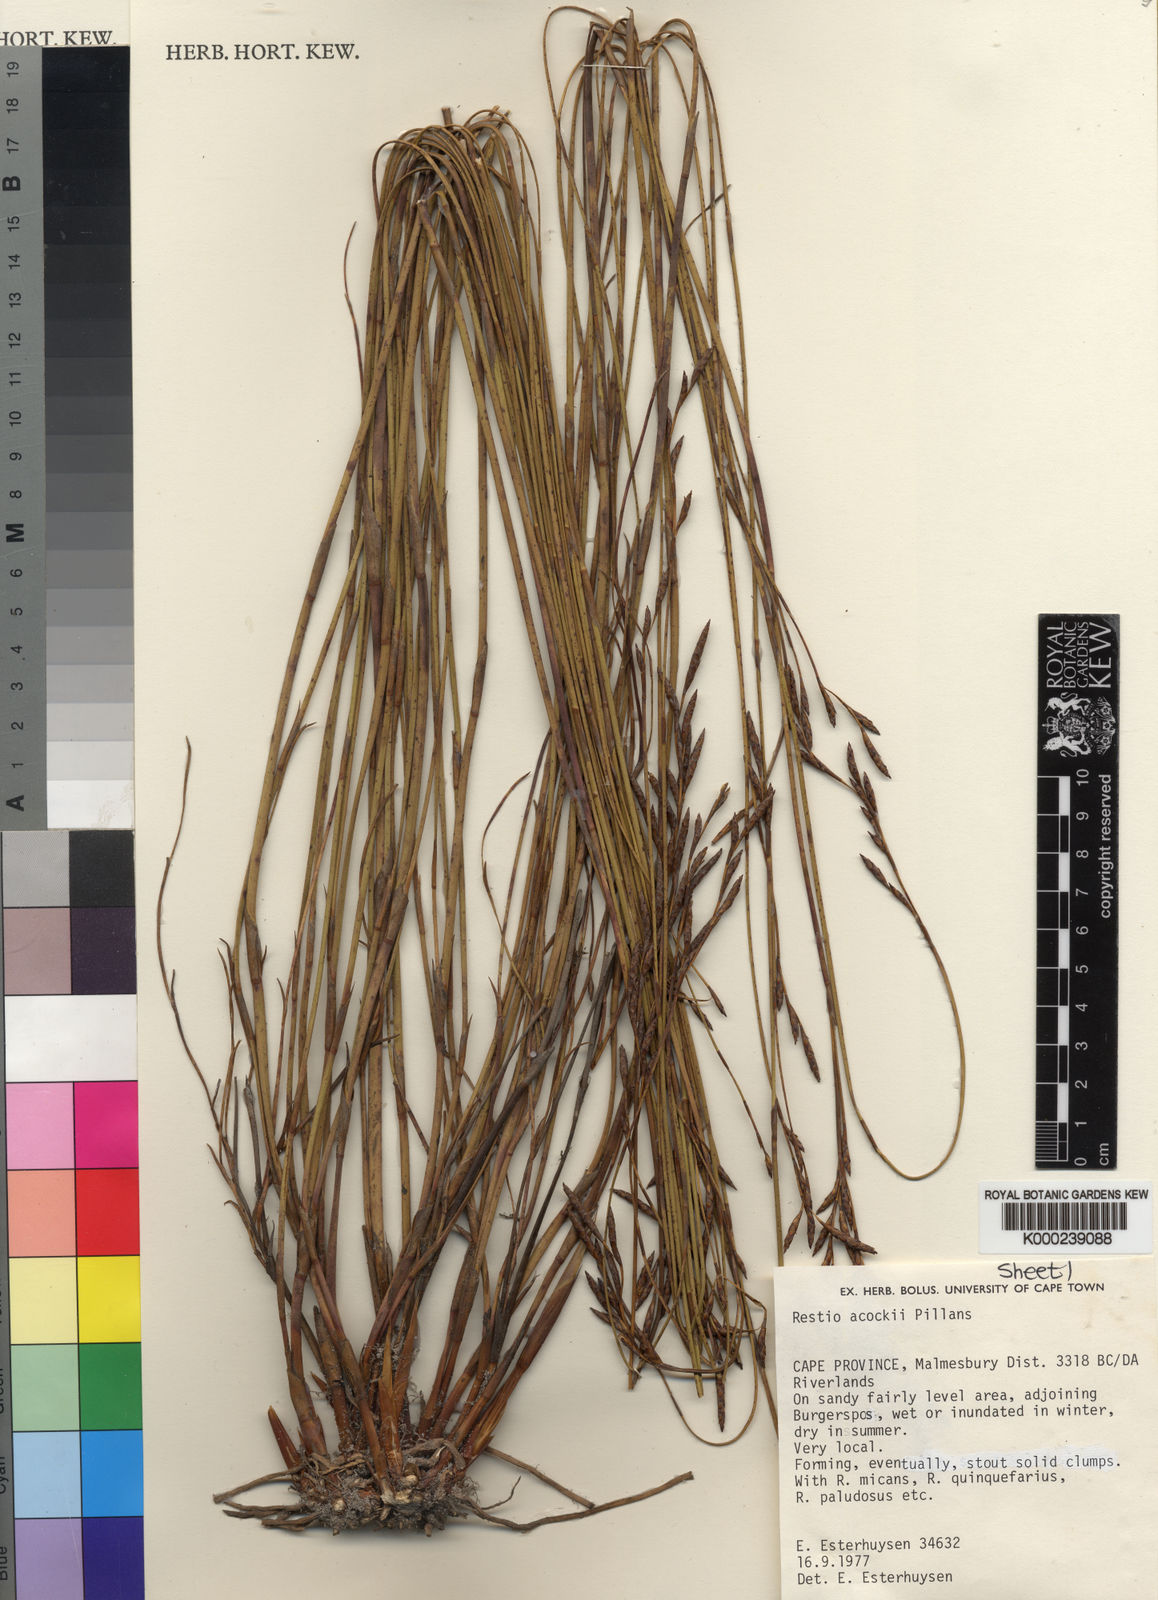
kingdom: Plantae
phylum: Tracheophyta
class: Liliopsida
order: Poales
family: Restionaceae
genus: Restio
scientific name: Restio acockii
